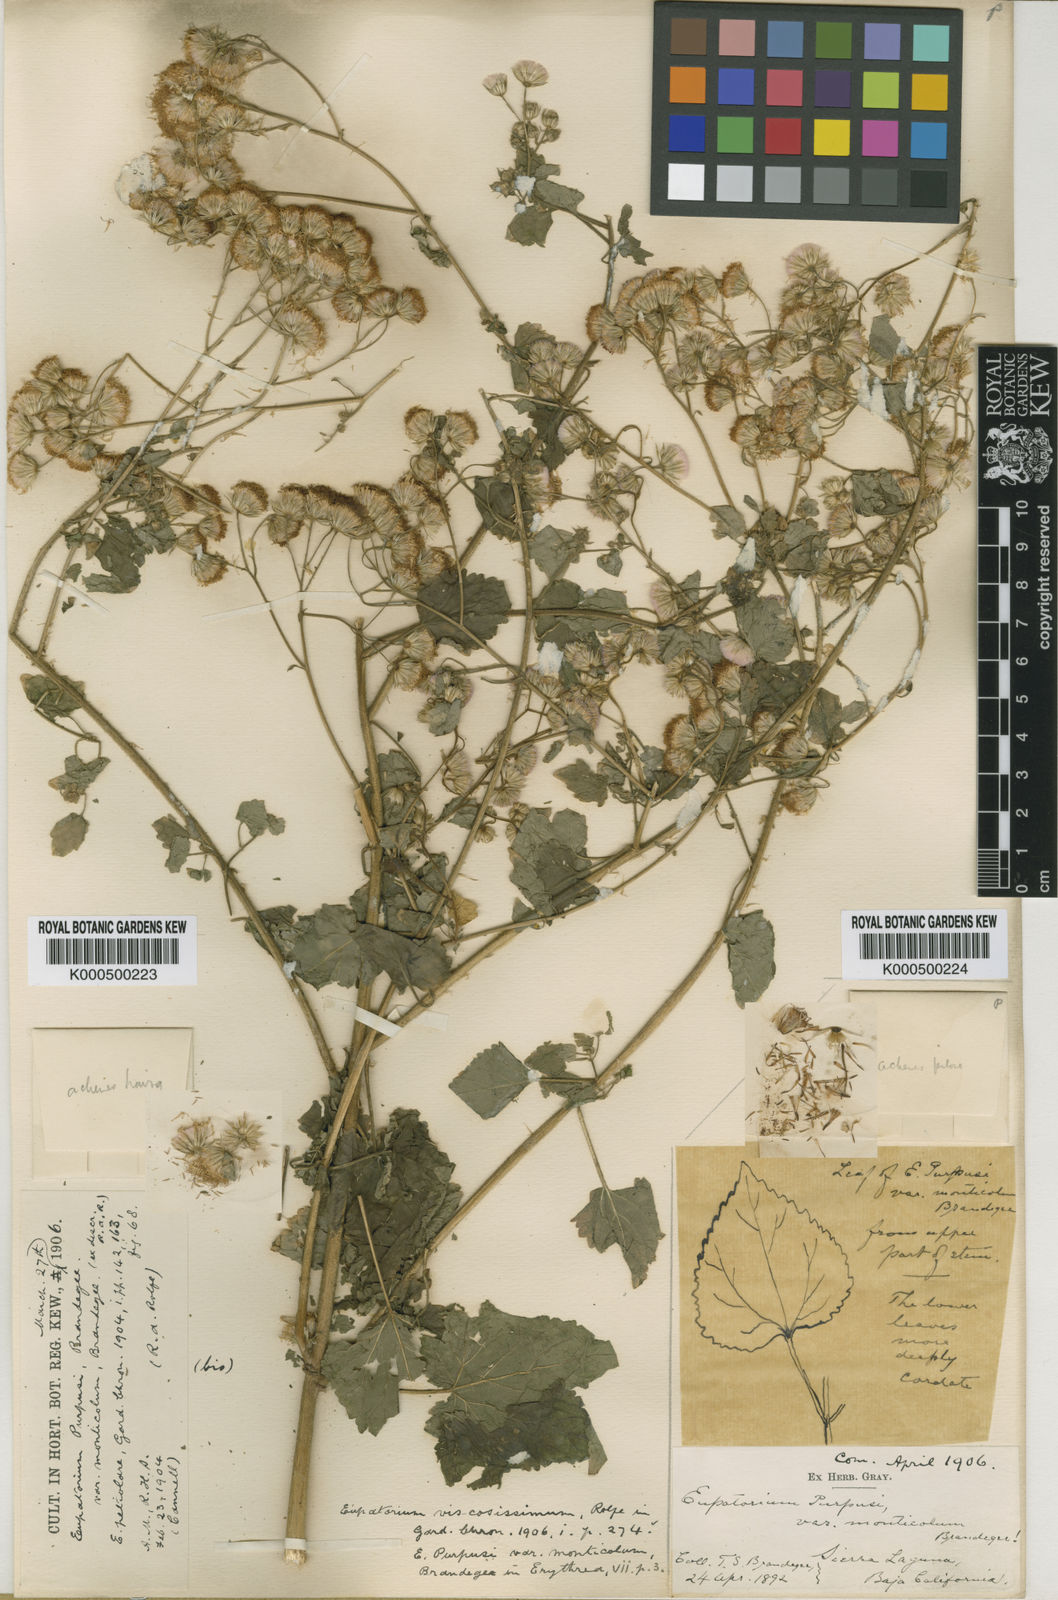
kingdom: Plantae
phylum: Tracheophyta
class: Magnoliopsida
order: Asterales
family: Asteraceae
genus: Ageratina
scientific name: Ageratina viscosissima
